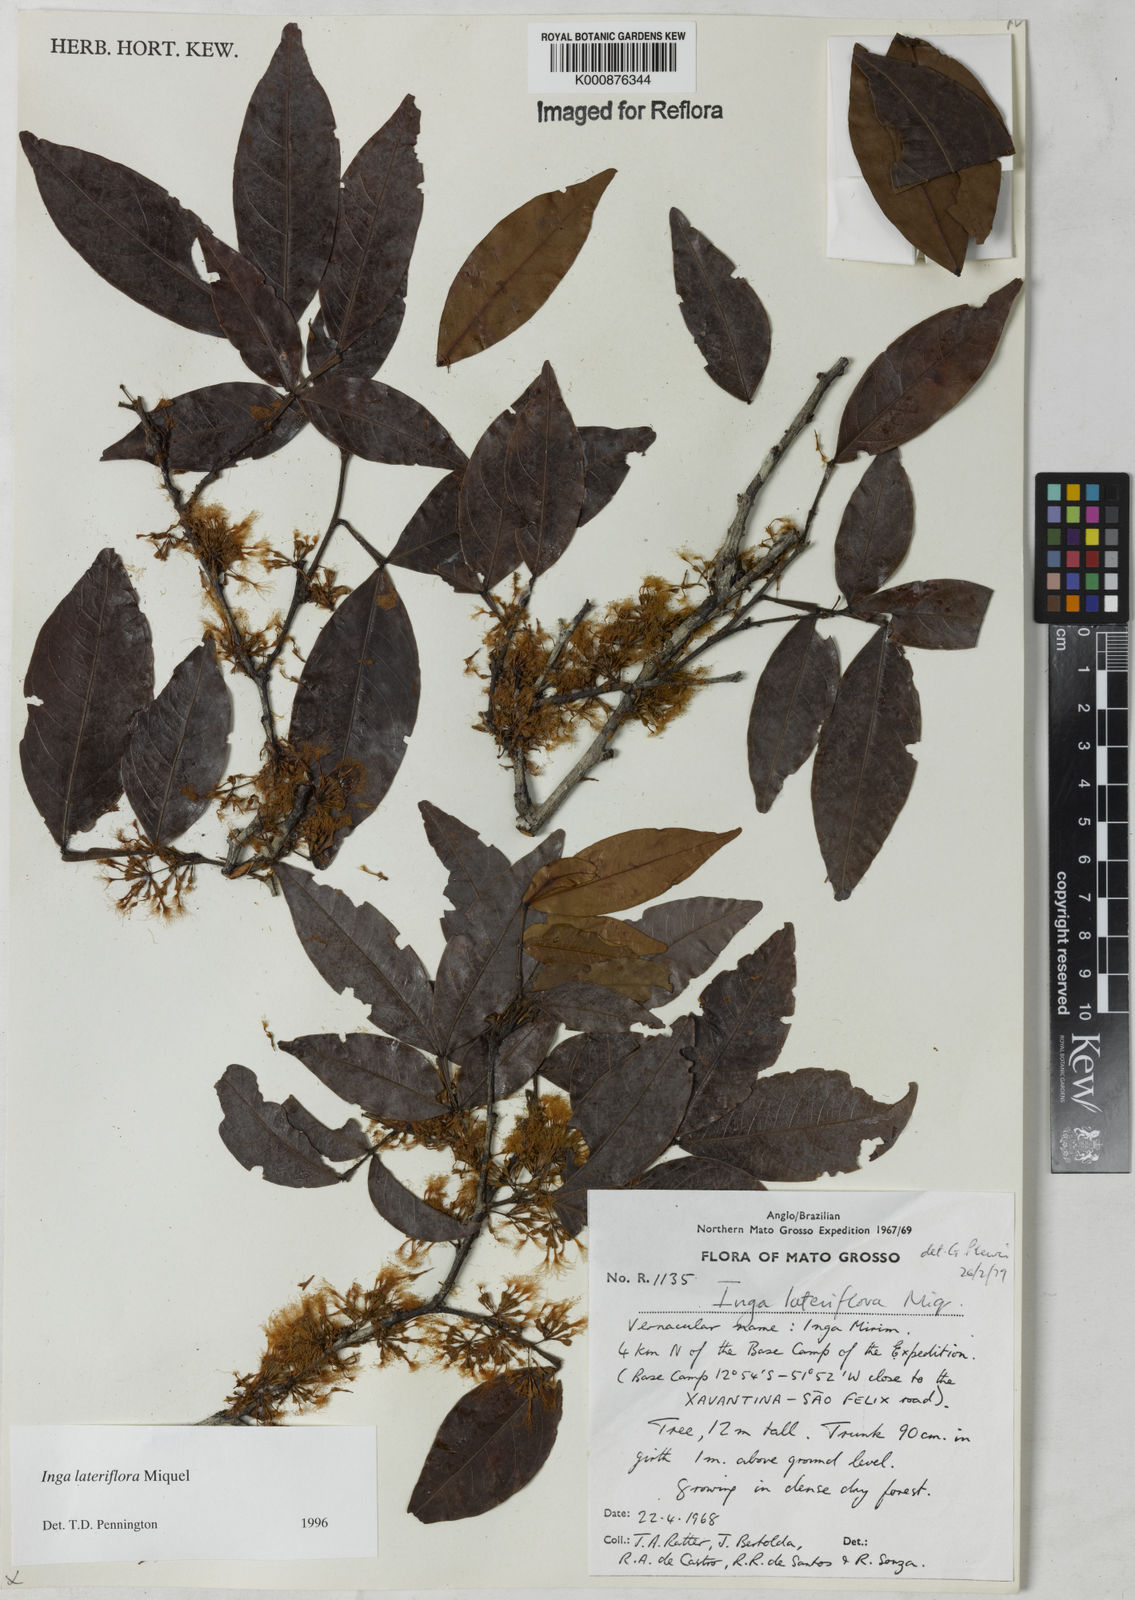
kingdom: Plantae
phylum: Tracheophyta
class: Magnoliopsida
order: Fabales
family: Fabaceae
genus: Inga
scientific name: Inga lateriflora
